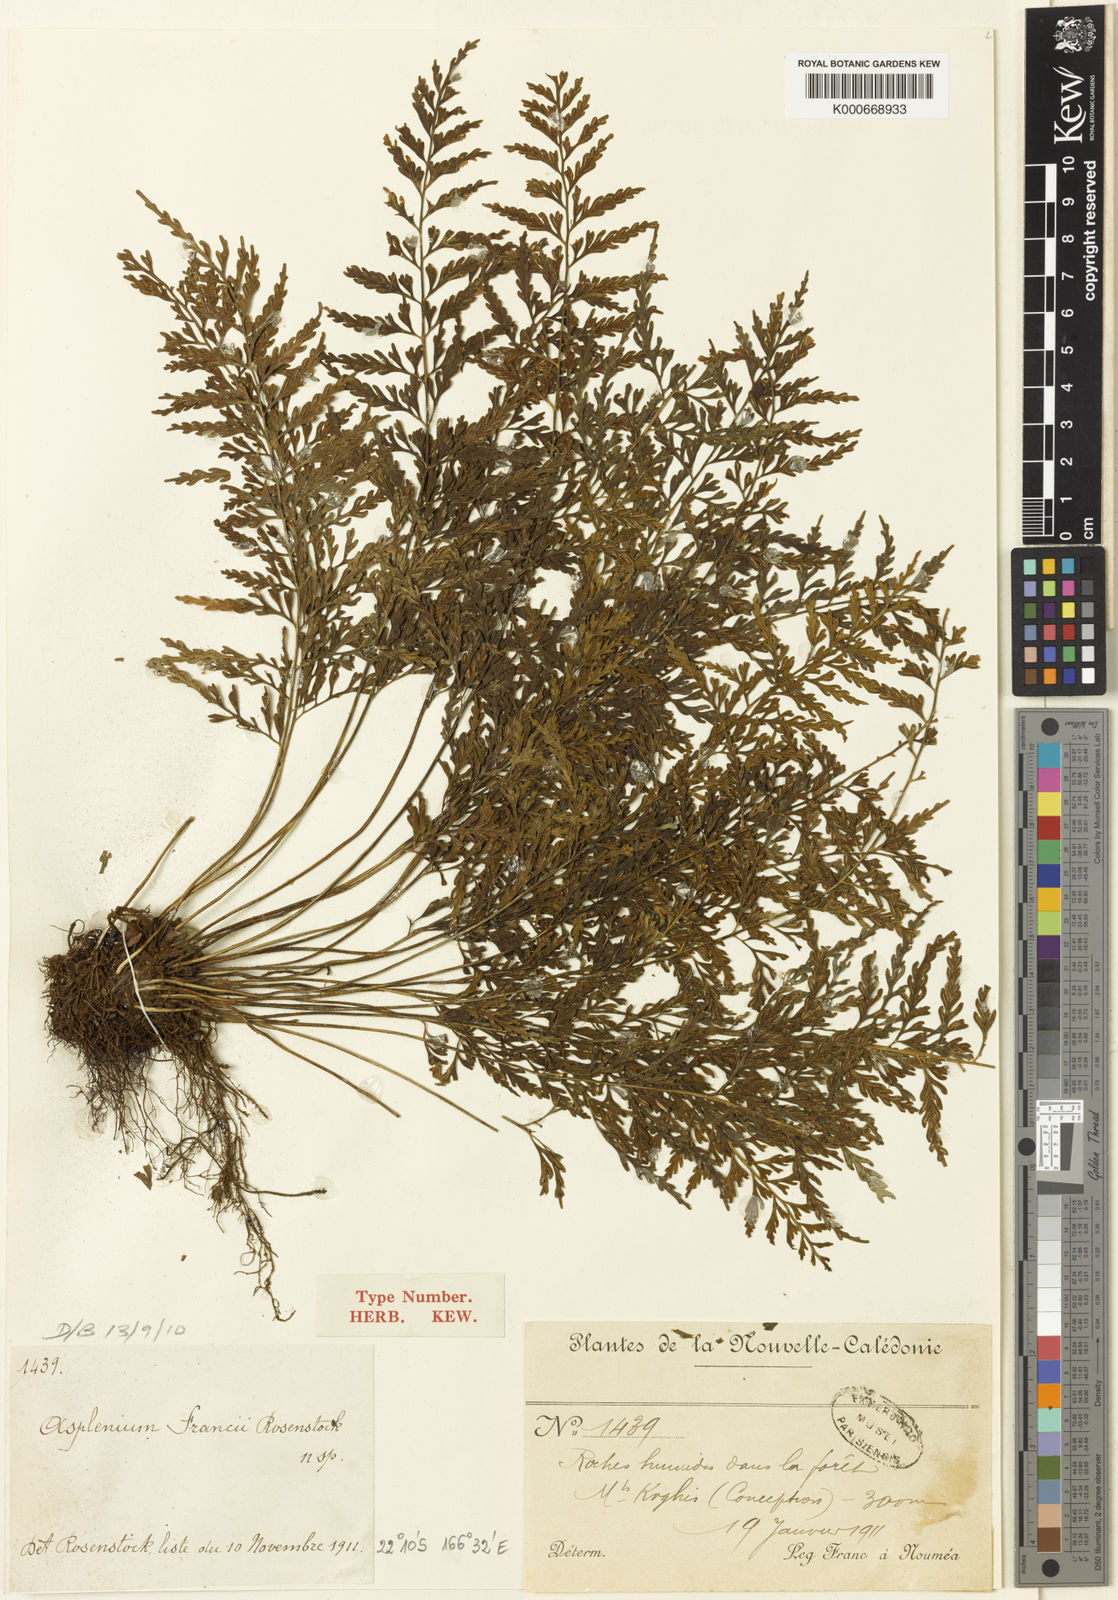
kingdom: Plantae
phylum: Tracheophyta
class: Polypodiopsida
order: Polypodiales
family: Aspleniaceae
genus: Asplenium
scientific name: Asplenium francii
